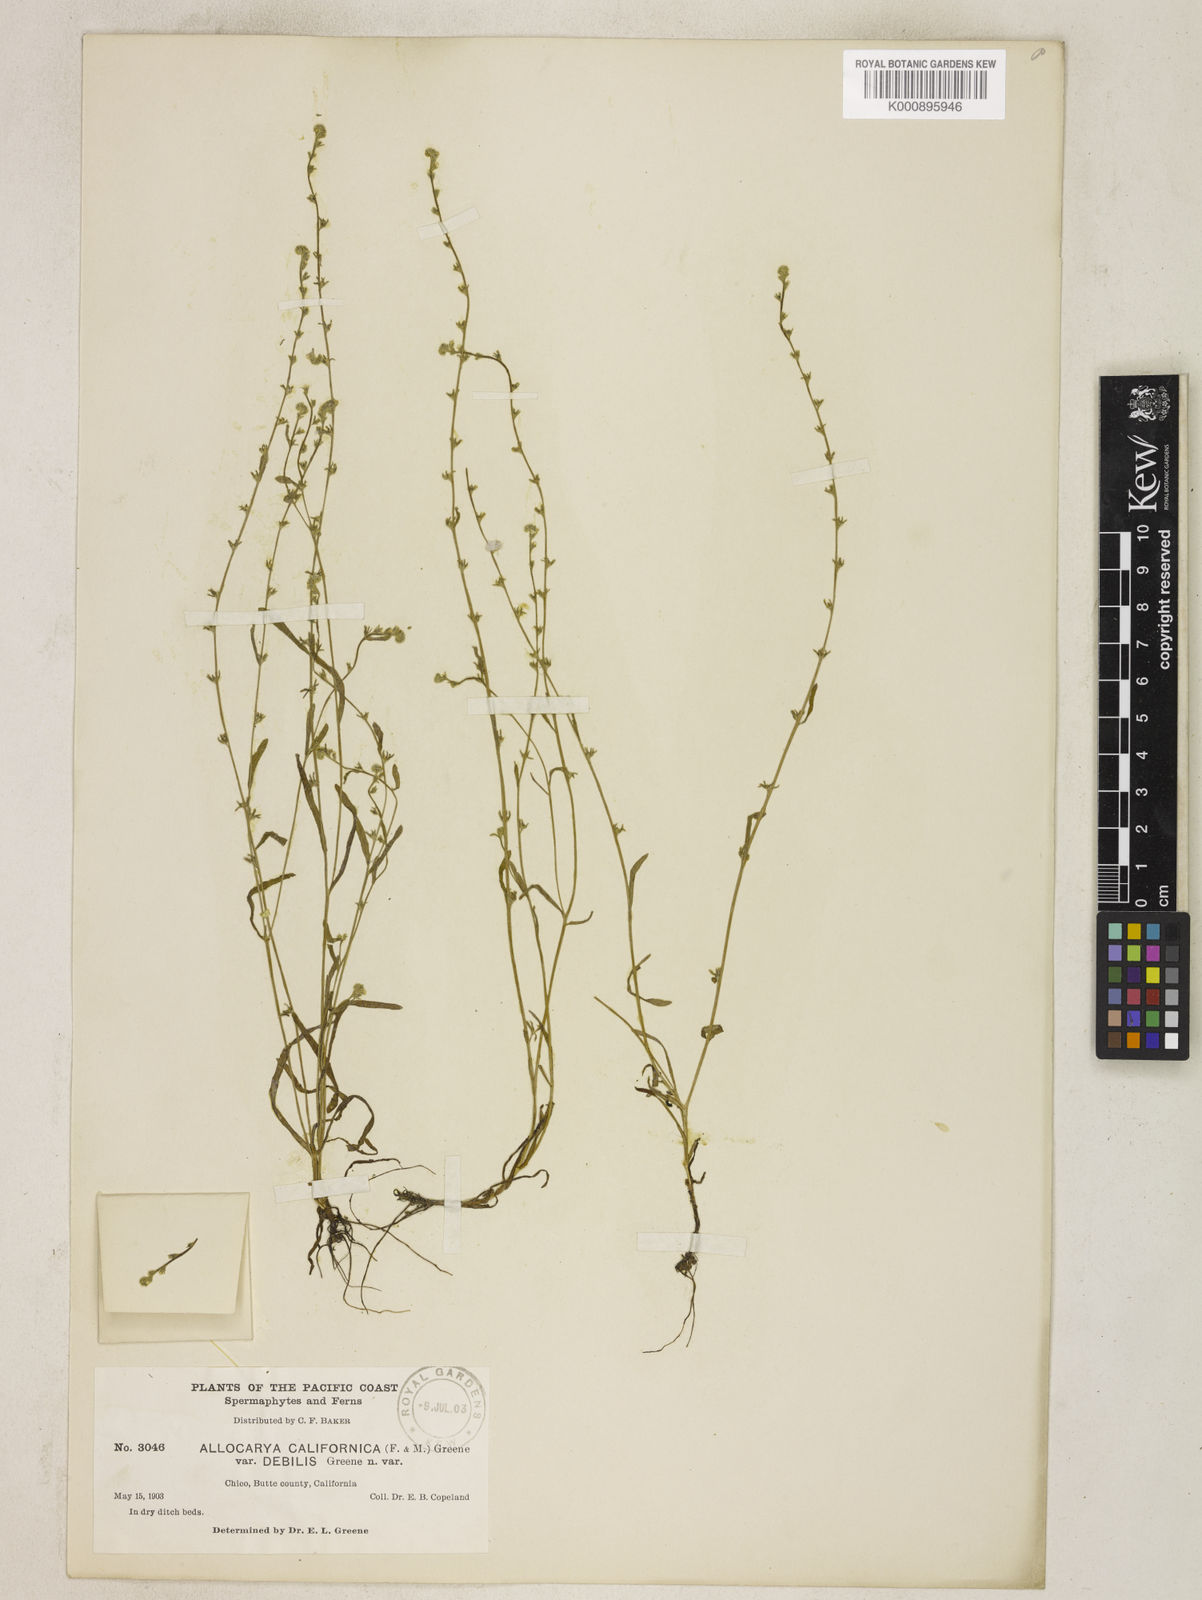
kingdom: Plantae
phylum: Tracheophyta
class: Magnoliopsida
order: Boraginales
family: Boraginaceae
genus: Plagiobothrys
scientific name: Plagiobothrys bracteatus
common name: Bract popcorn-flower
